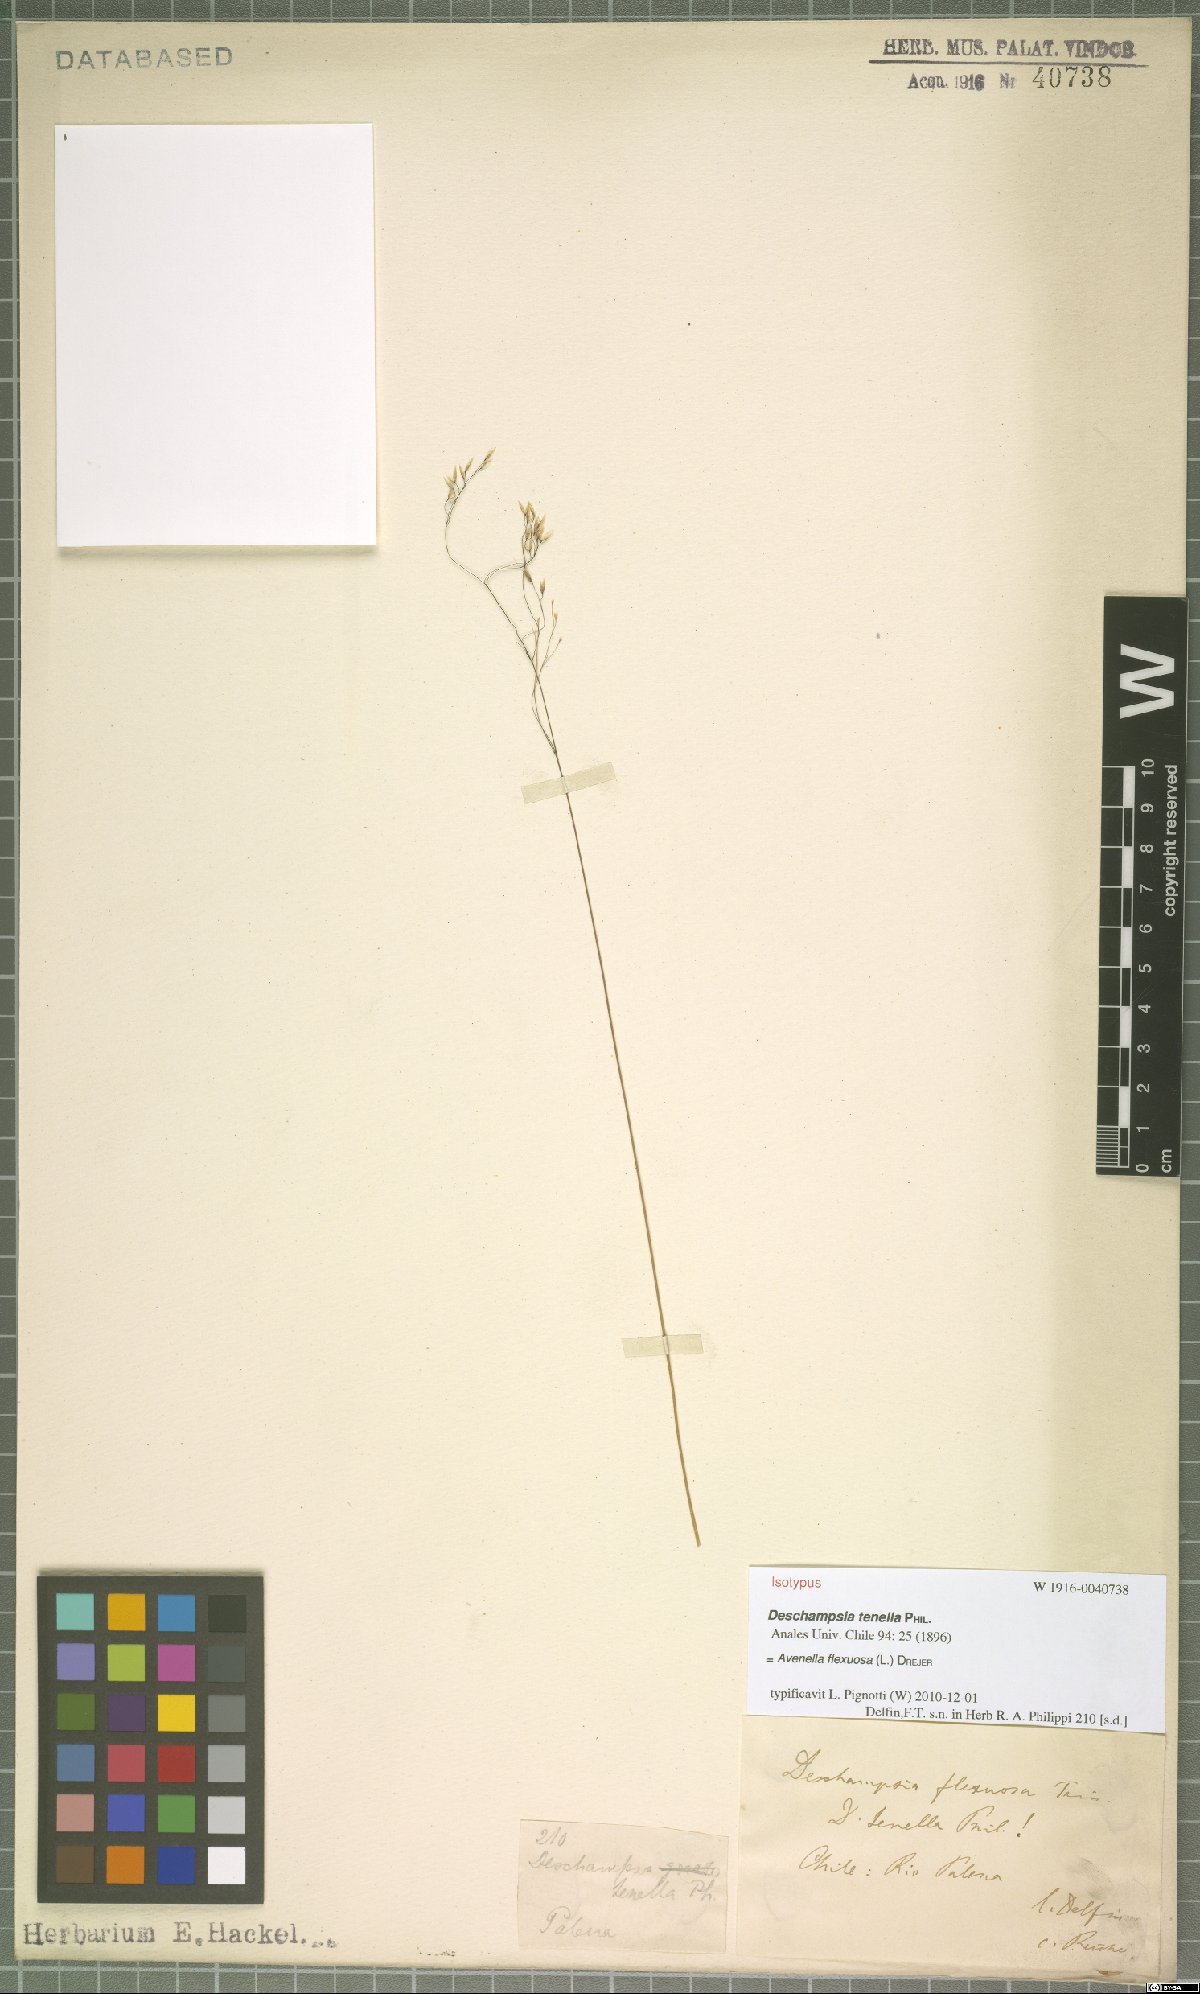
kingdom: Plantae
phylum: Tracheophyta
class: Liliopsida
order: Poales
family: Poaceae
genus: Avenella
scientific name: Avenella flexuosa
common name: Wavy hairgrass
